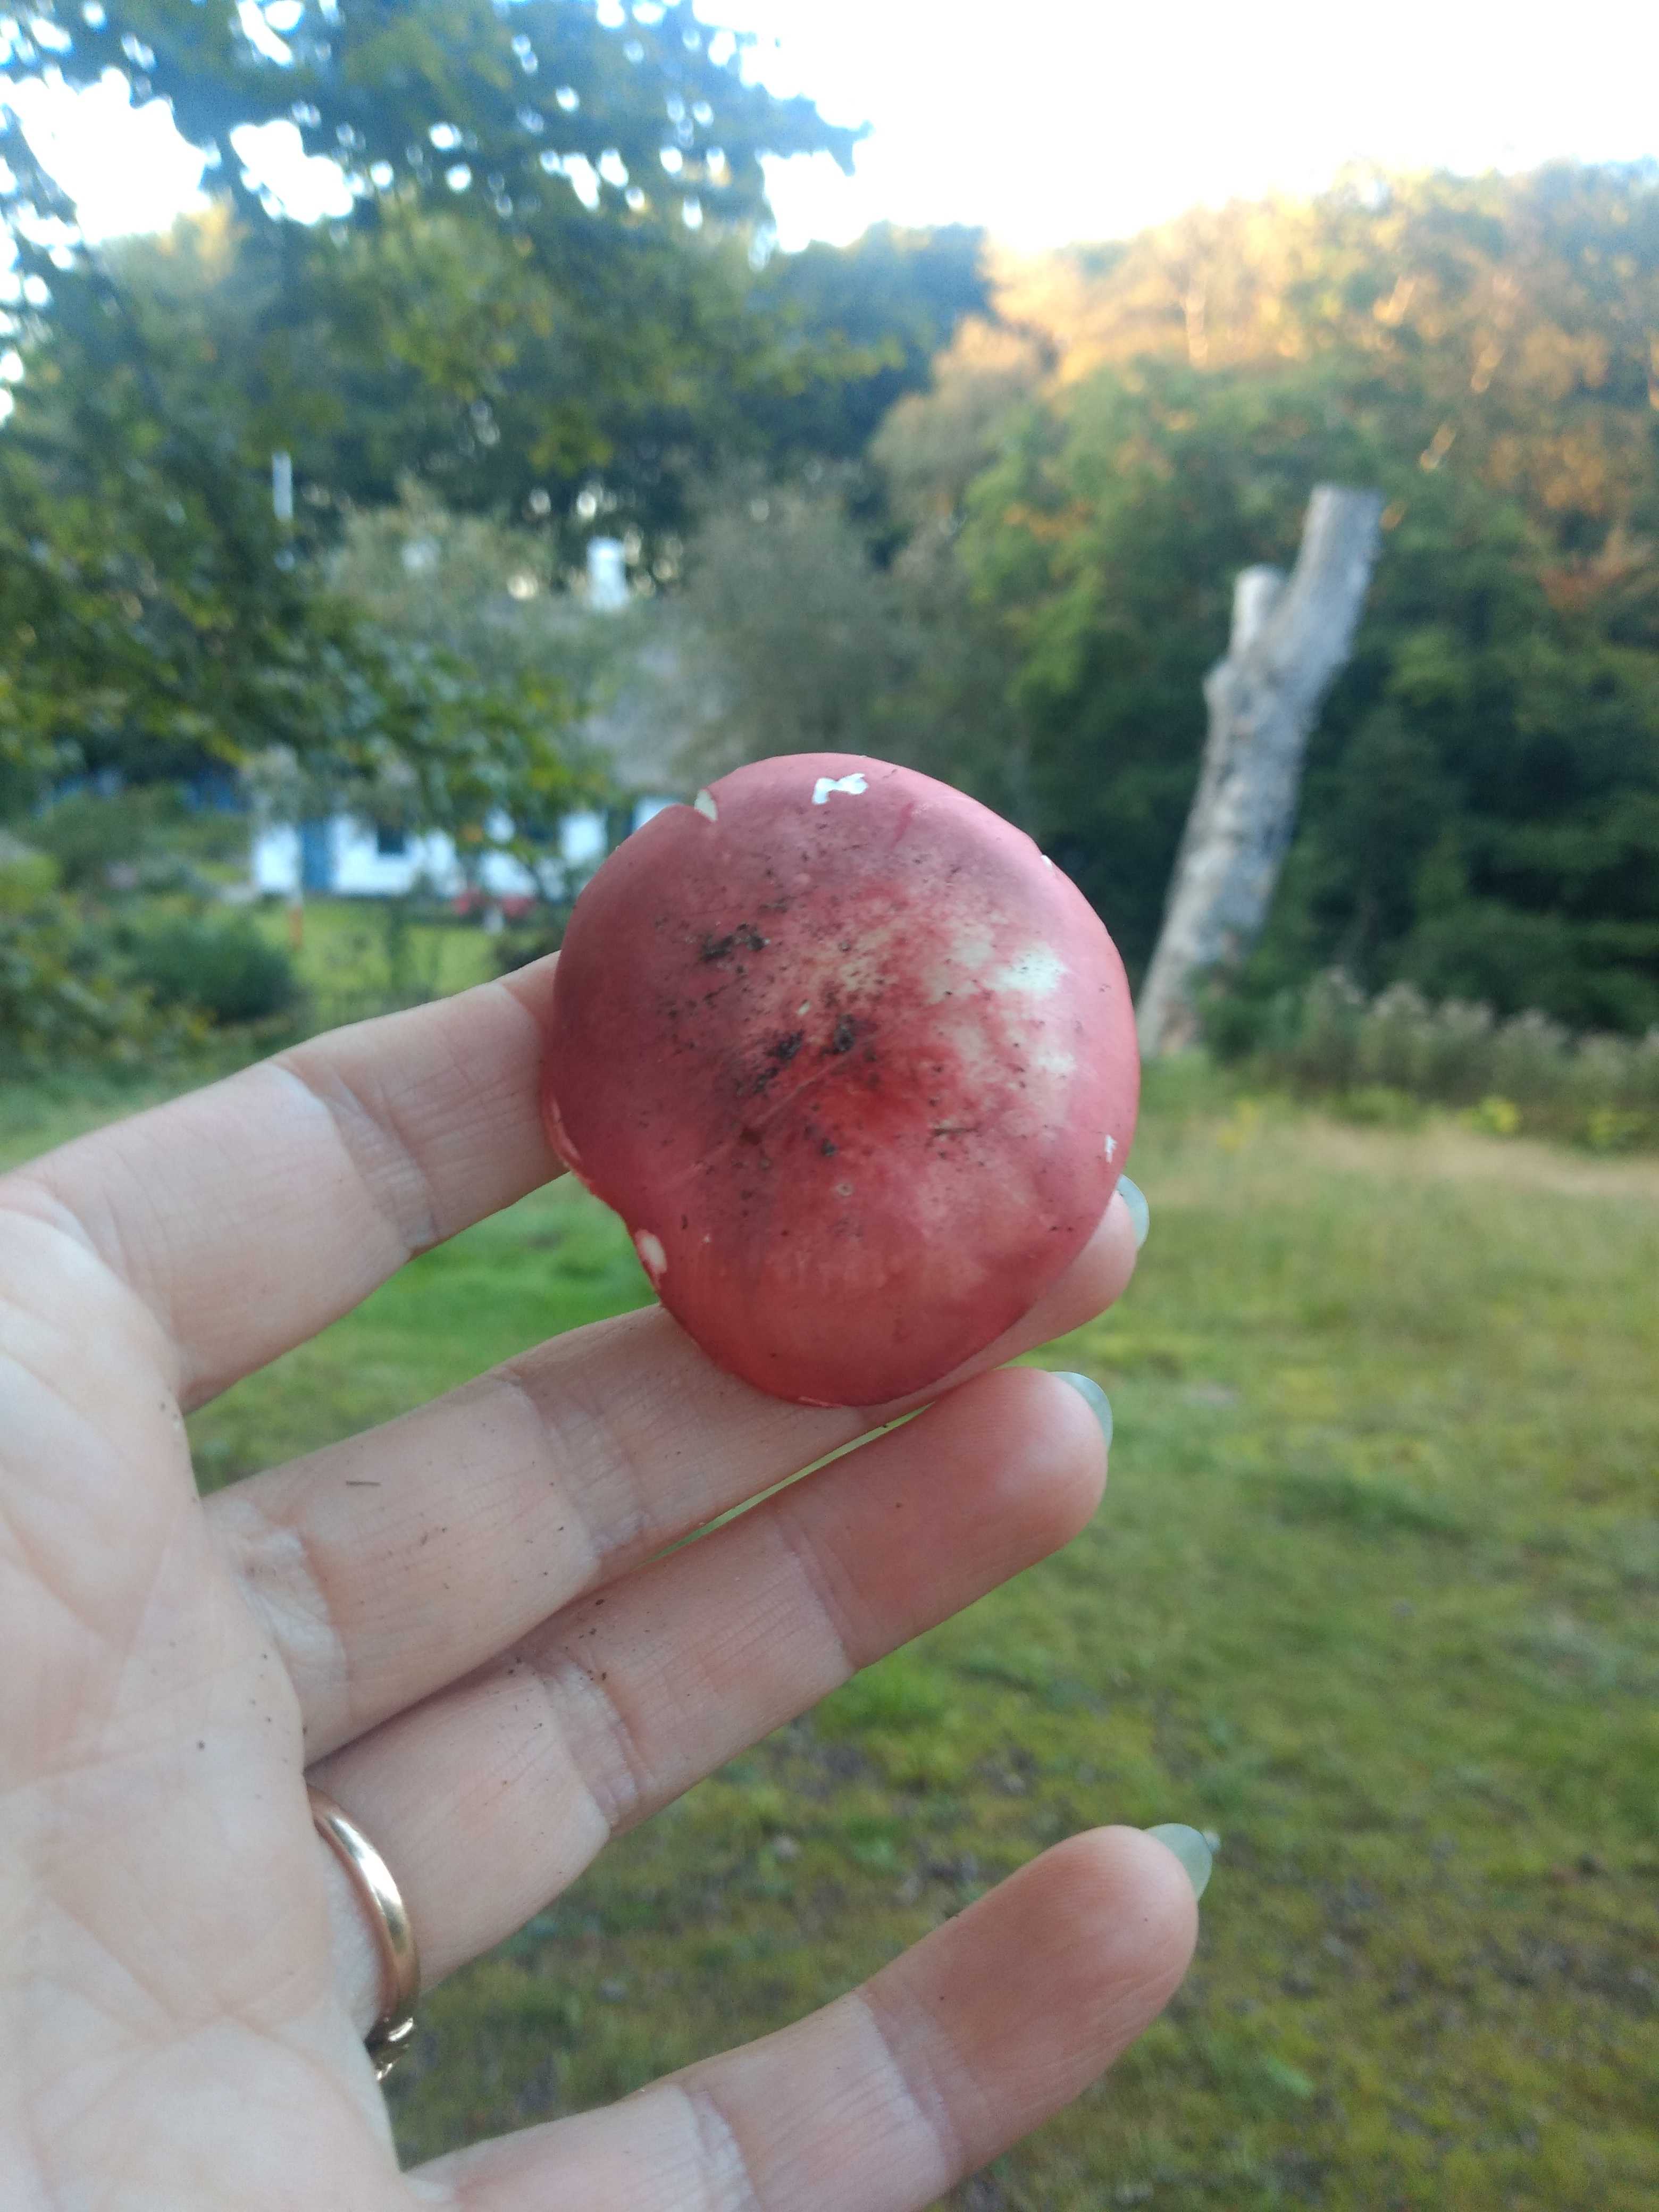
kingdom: Fungi
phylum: Basidiomycota
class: Agaricomycetes
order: Russulales
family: Russulaceae
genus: Russula
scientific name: Russula rosea
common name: fastkødet skørhat
